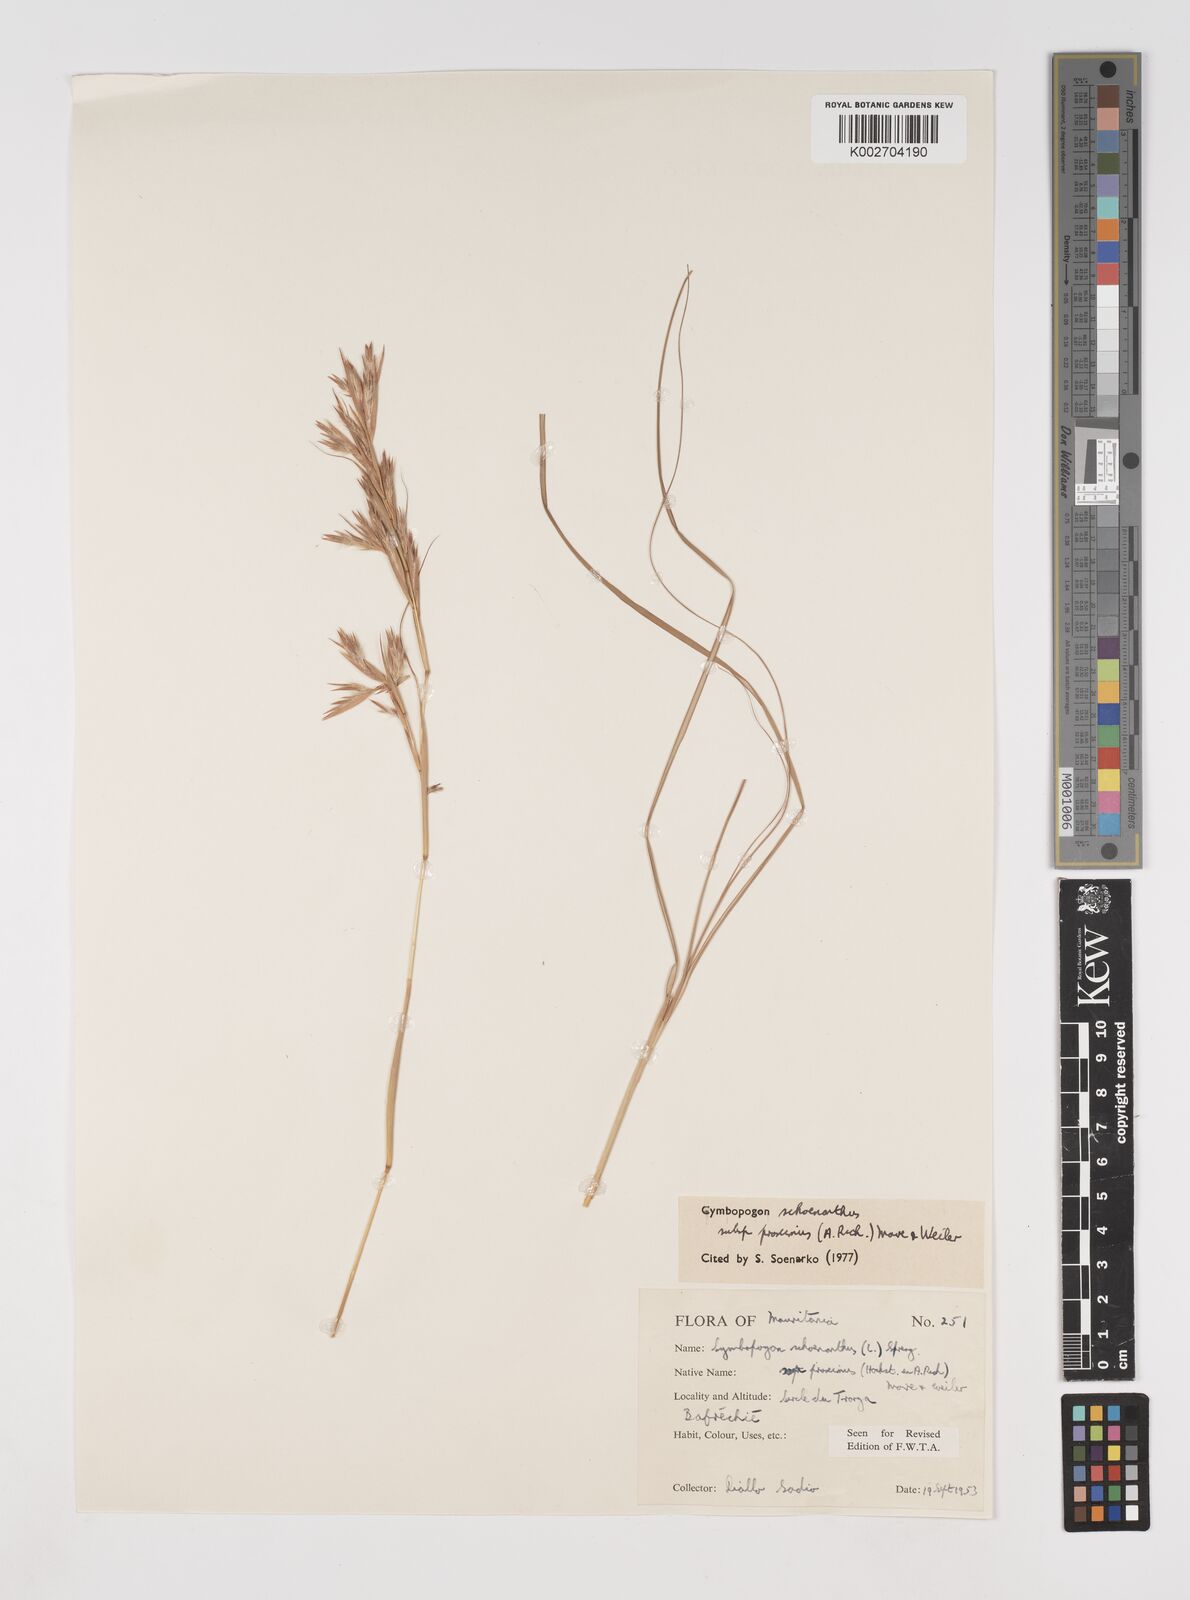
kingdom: Plantae
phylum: Tracheophyta
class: Liliopsida
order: Poales
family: Poaceae
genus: Cymbopogon
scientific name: Cymbopogon schoenanthus
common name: Geranium grass
